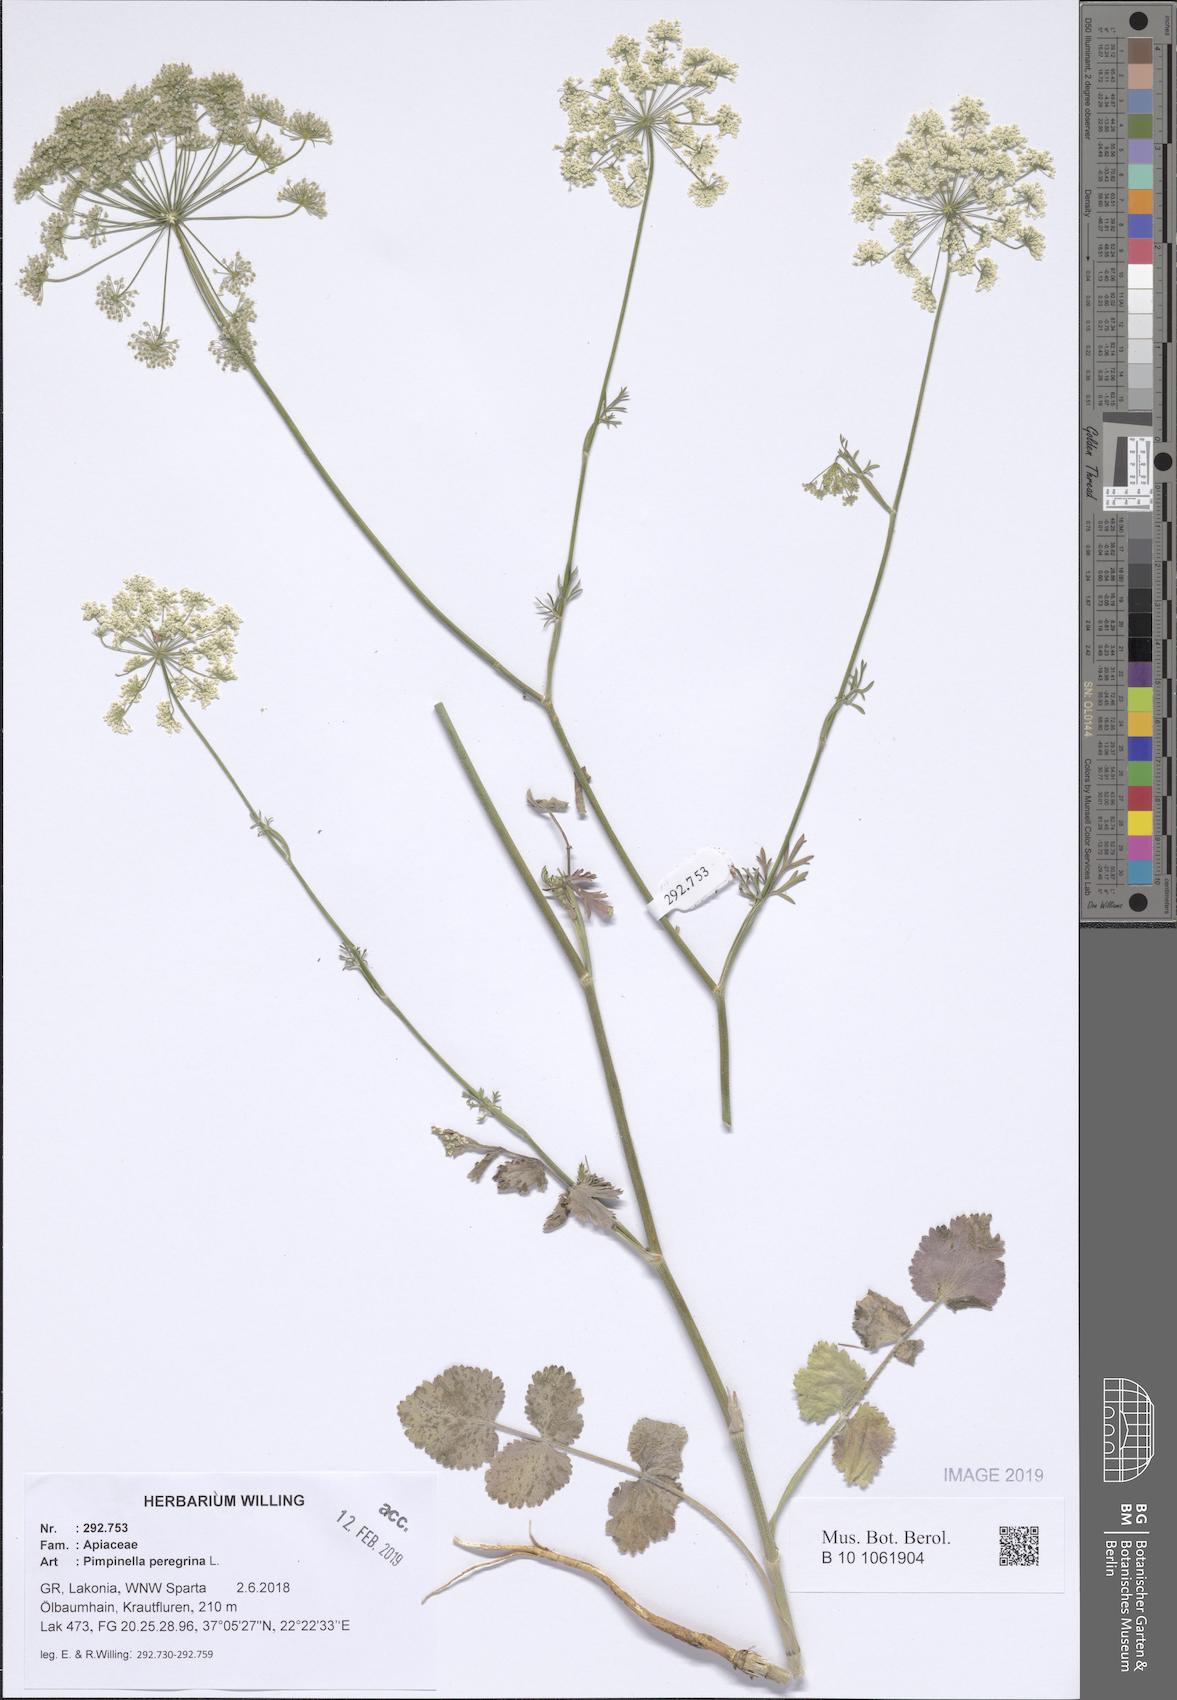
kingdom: Plantae
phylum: Tracheophyta
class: Magnoliopsida
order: Apiales
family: Apiaceae
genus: Pimpinella
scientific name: Pimpinella peregrina
